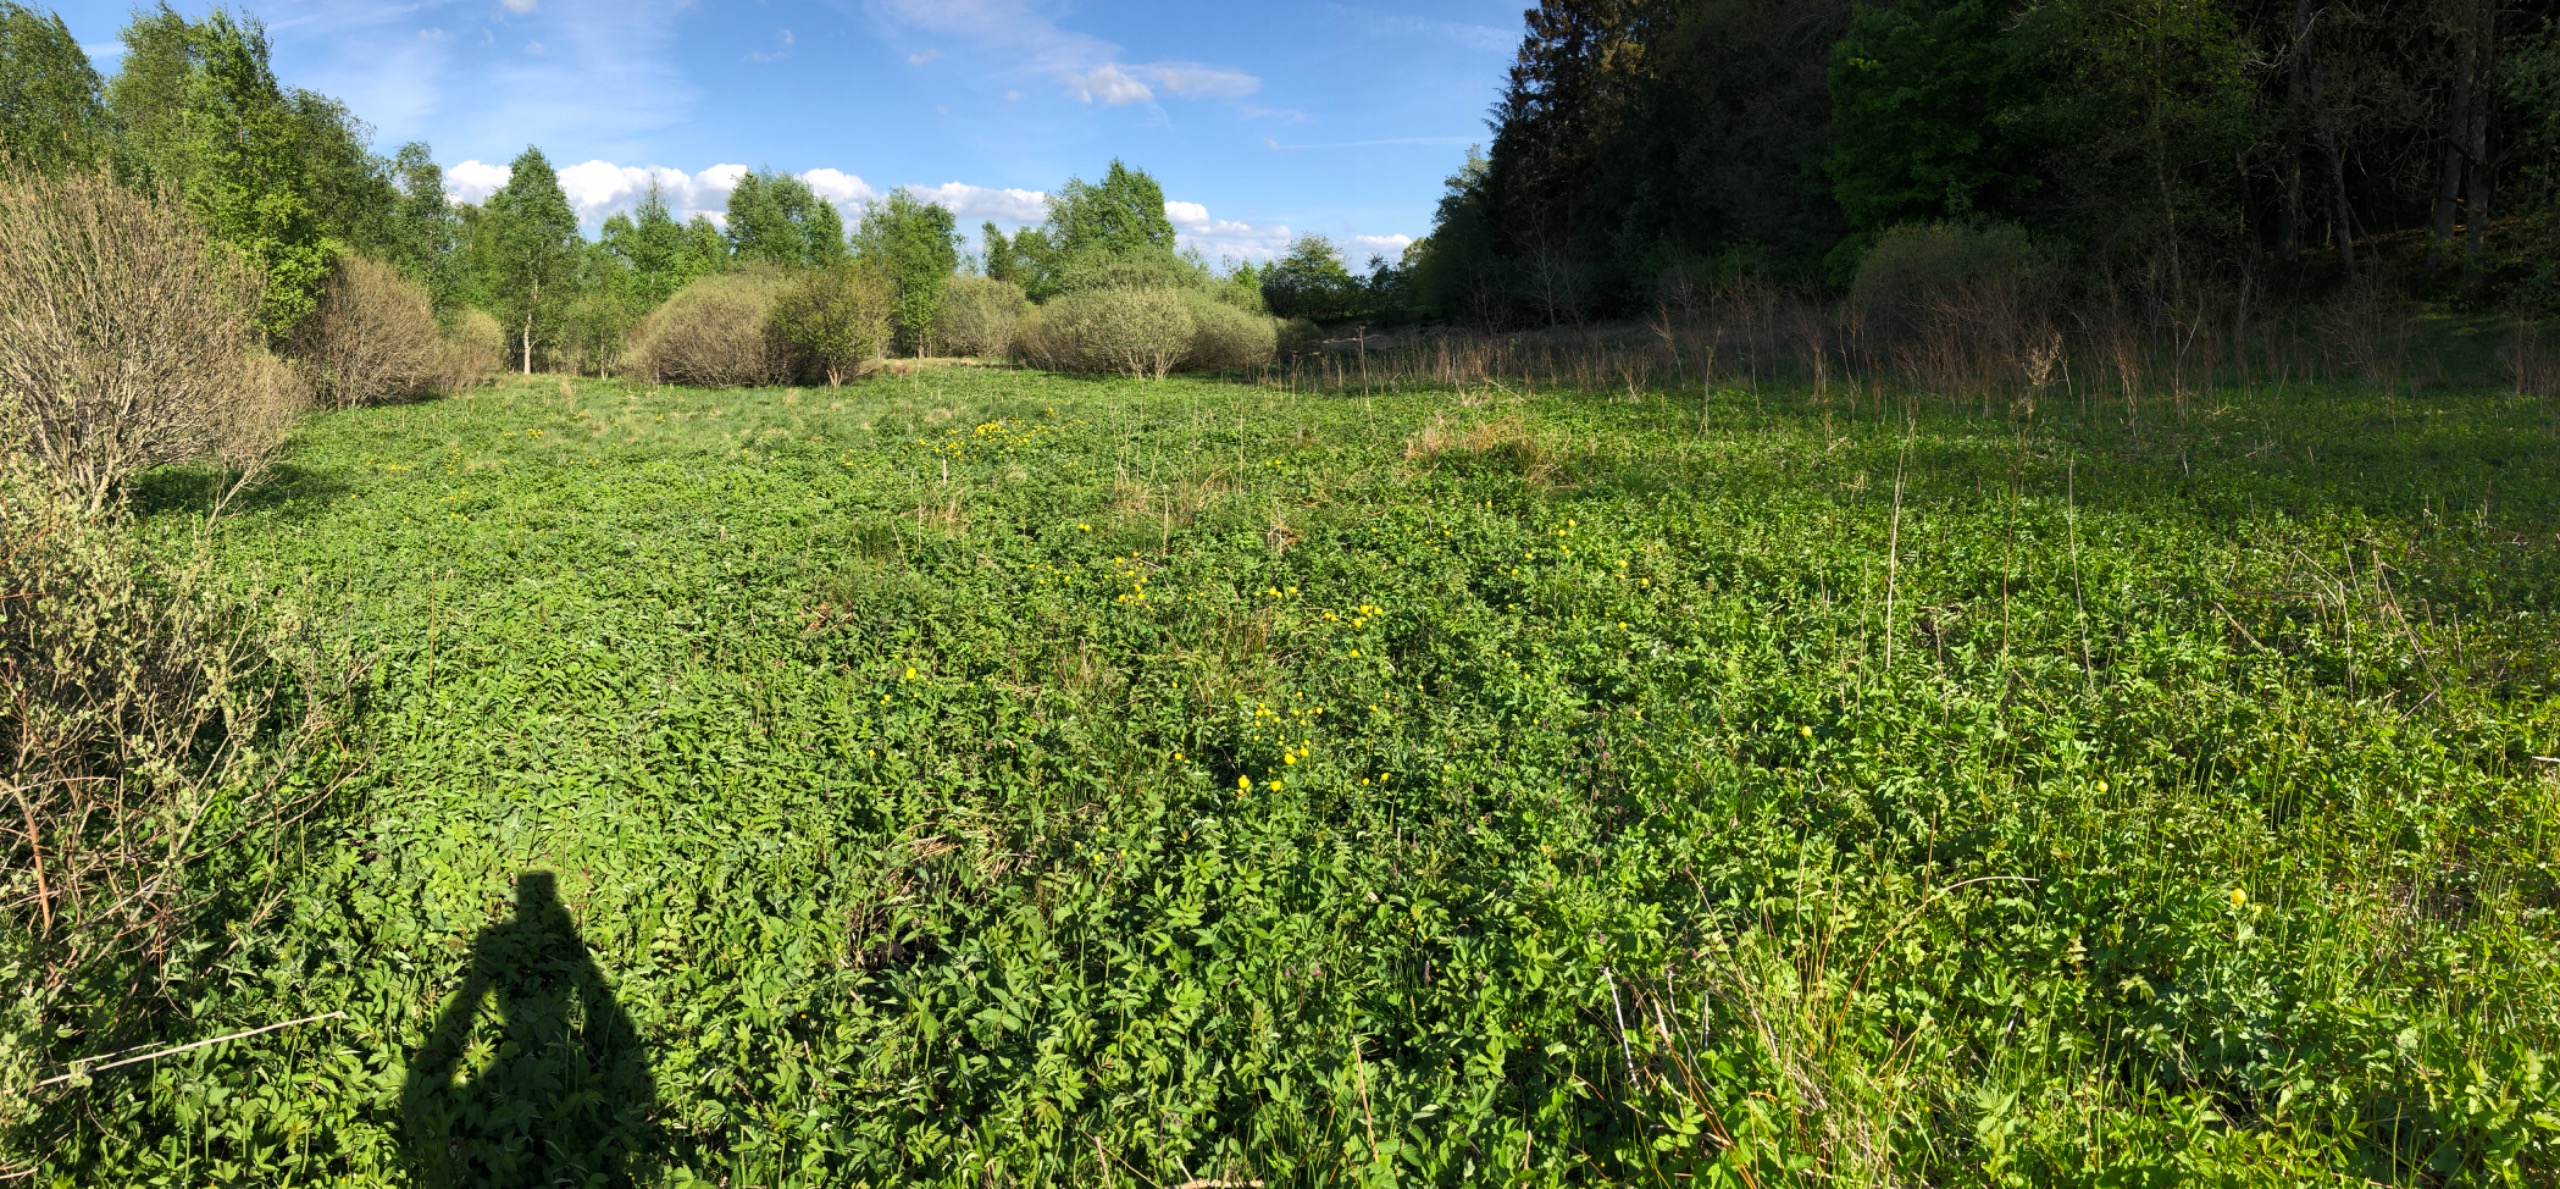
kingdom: Plantae
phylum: Tracheophyta
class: Magnoliopsida
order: Ranunculales
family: Ranunculaceae
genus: Trollius
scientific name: Trollius europaeus
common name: Engblomme
